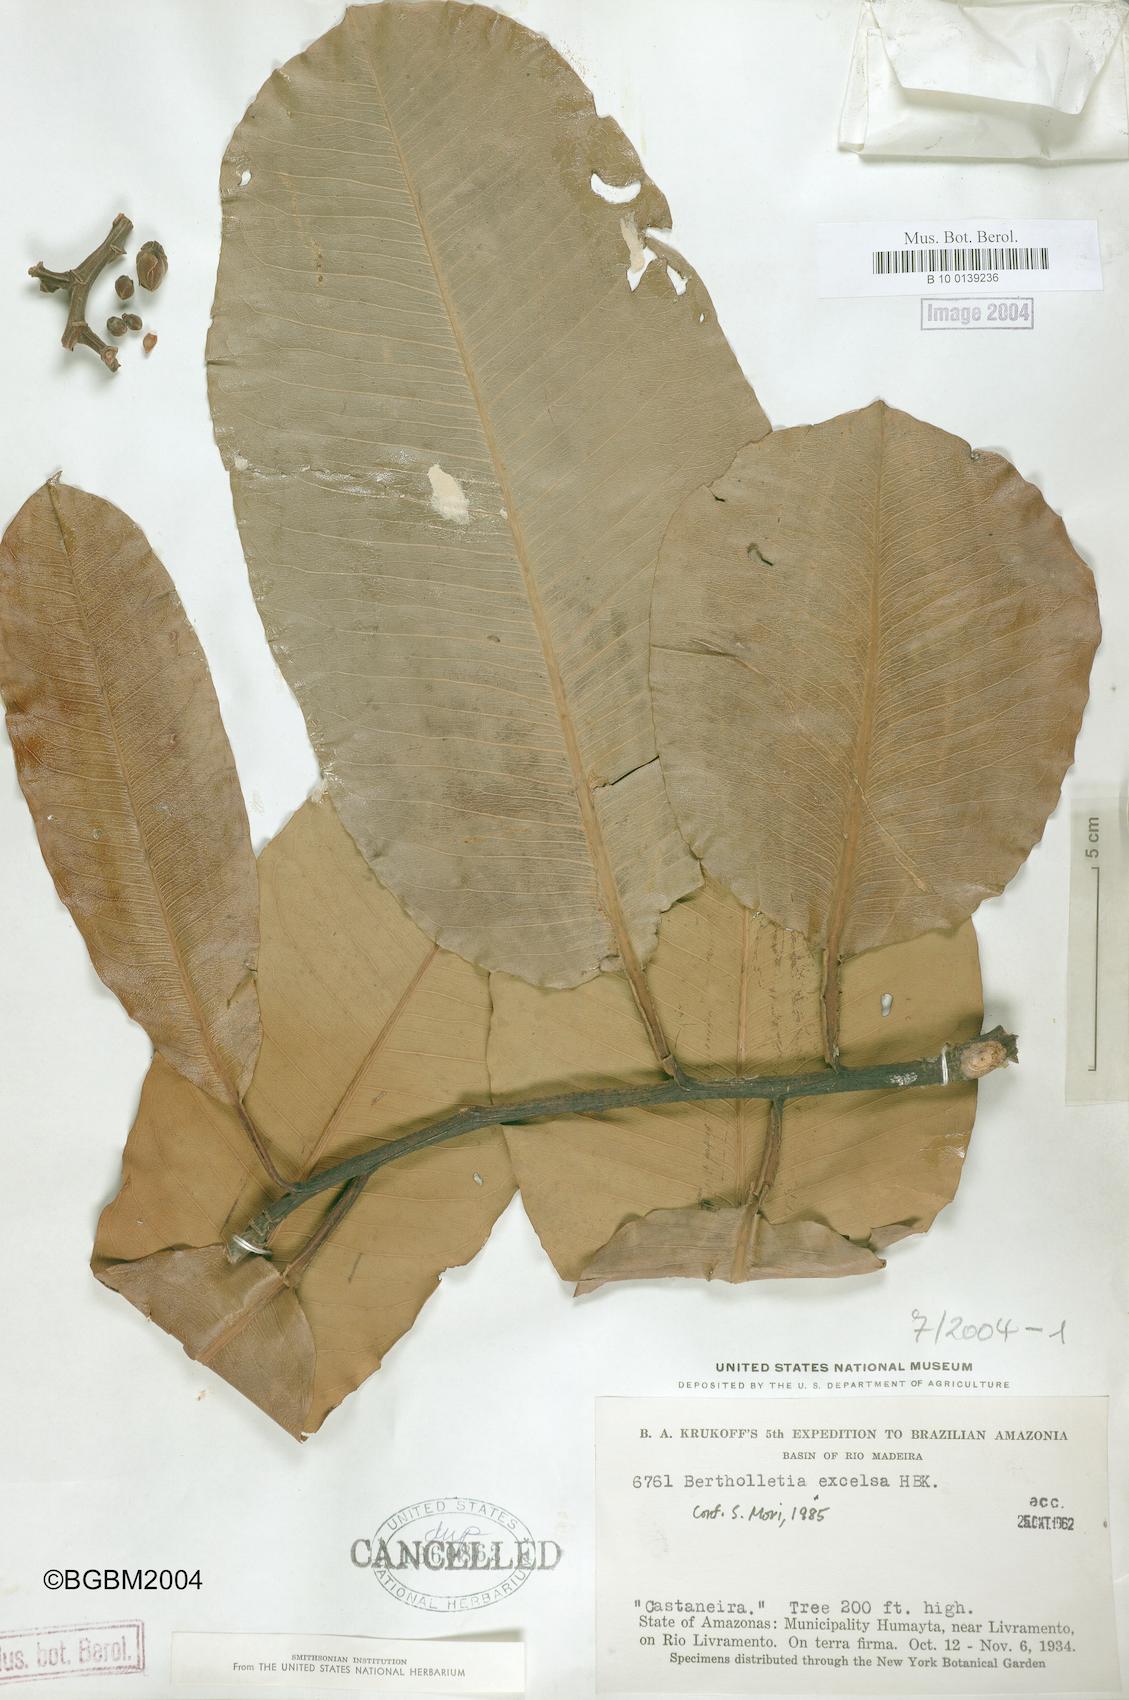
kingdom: Plantae
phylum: Tracheophyta
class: Magnoliopsida
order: Ericales
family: Lecythidaceae
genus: Bertholletia
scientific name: Bertholletia excelsa
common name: Brazil-nut tree
